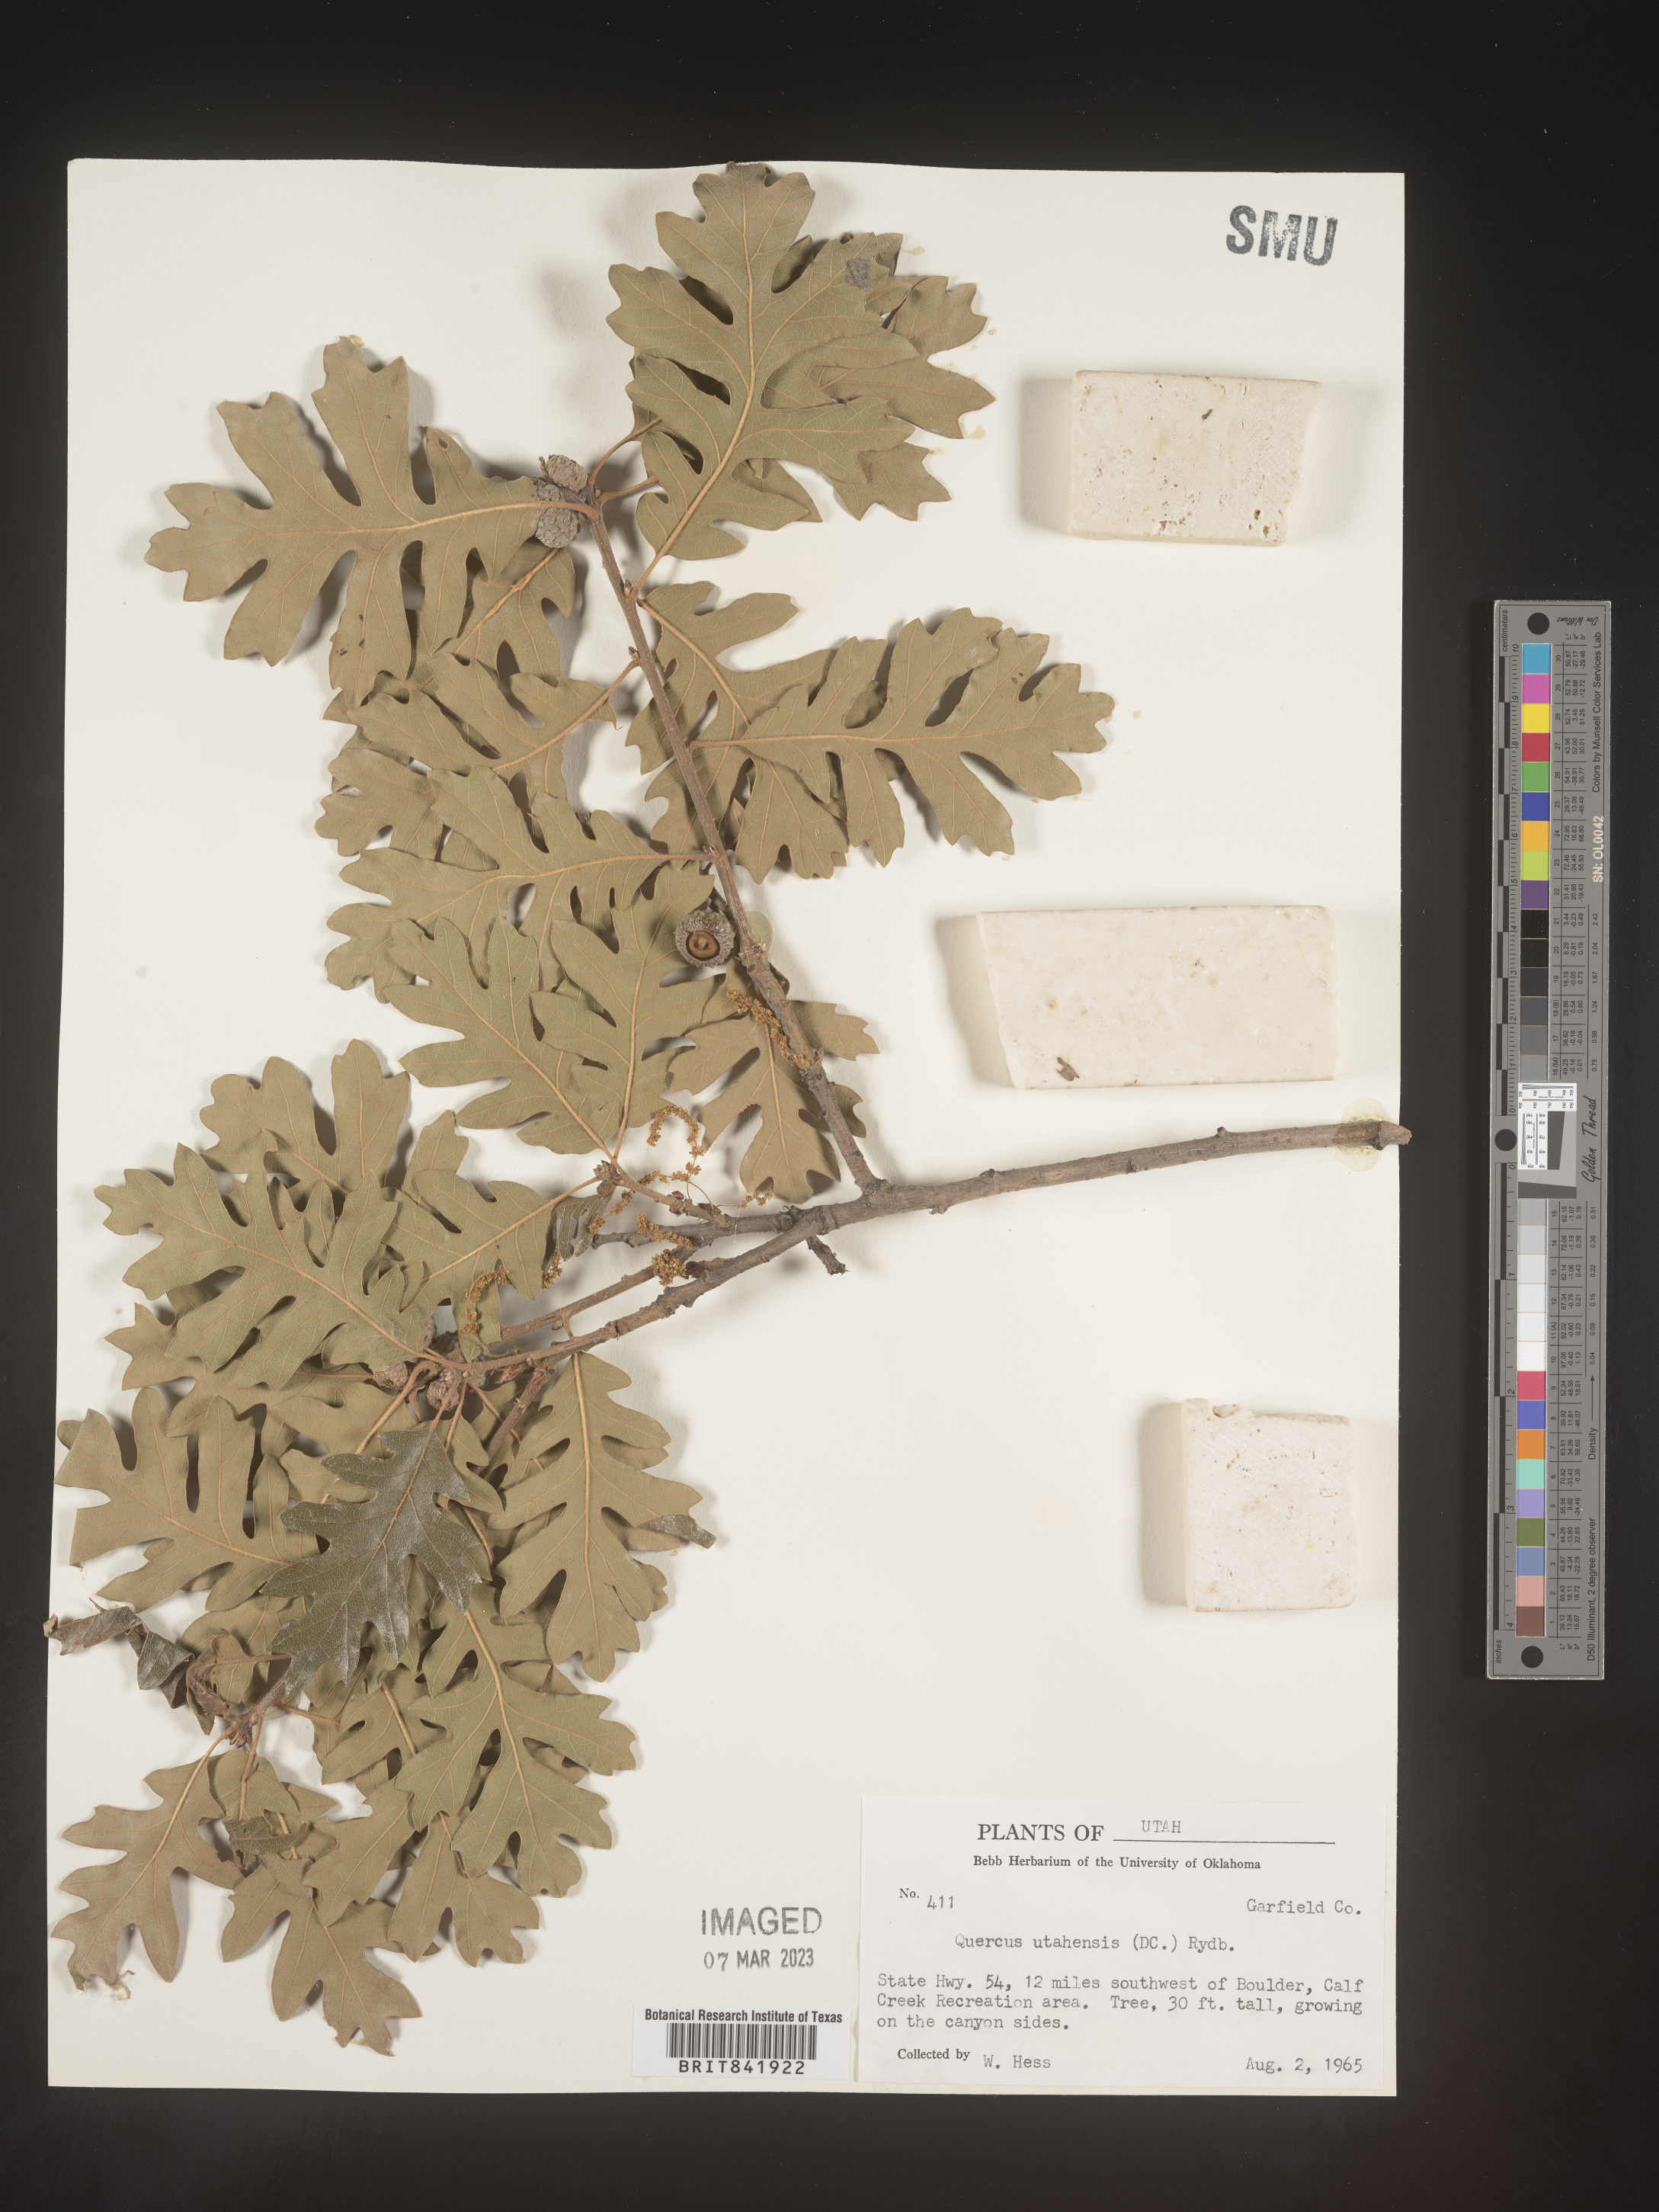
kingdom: Plantae
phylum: Tracheophyta
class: Magnoliopsida
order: Fagales
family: Fagaceae
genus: Quercus
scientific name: Quercus gambelii
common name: Gambel oak
